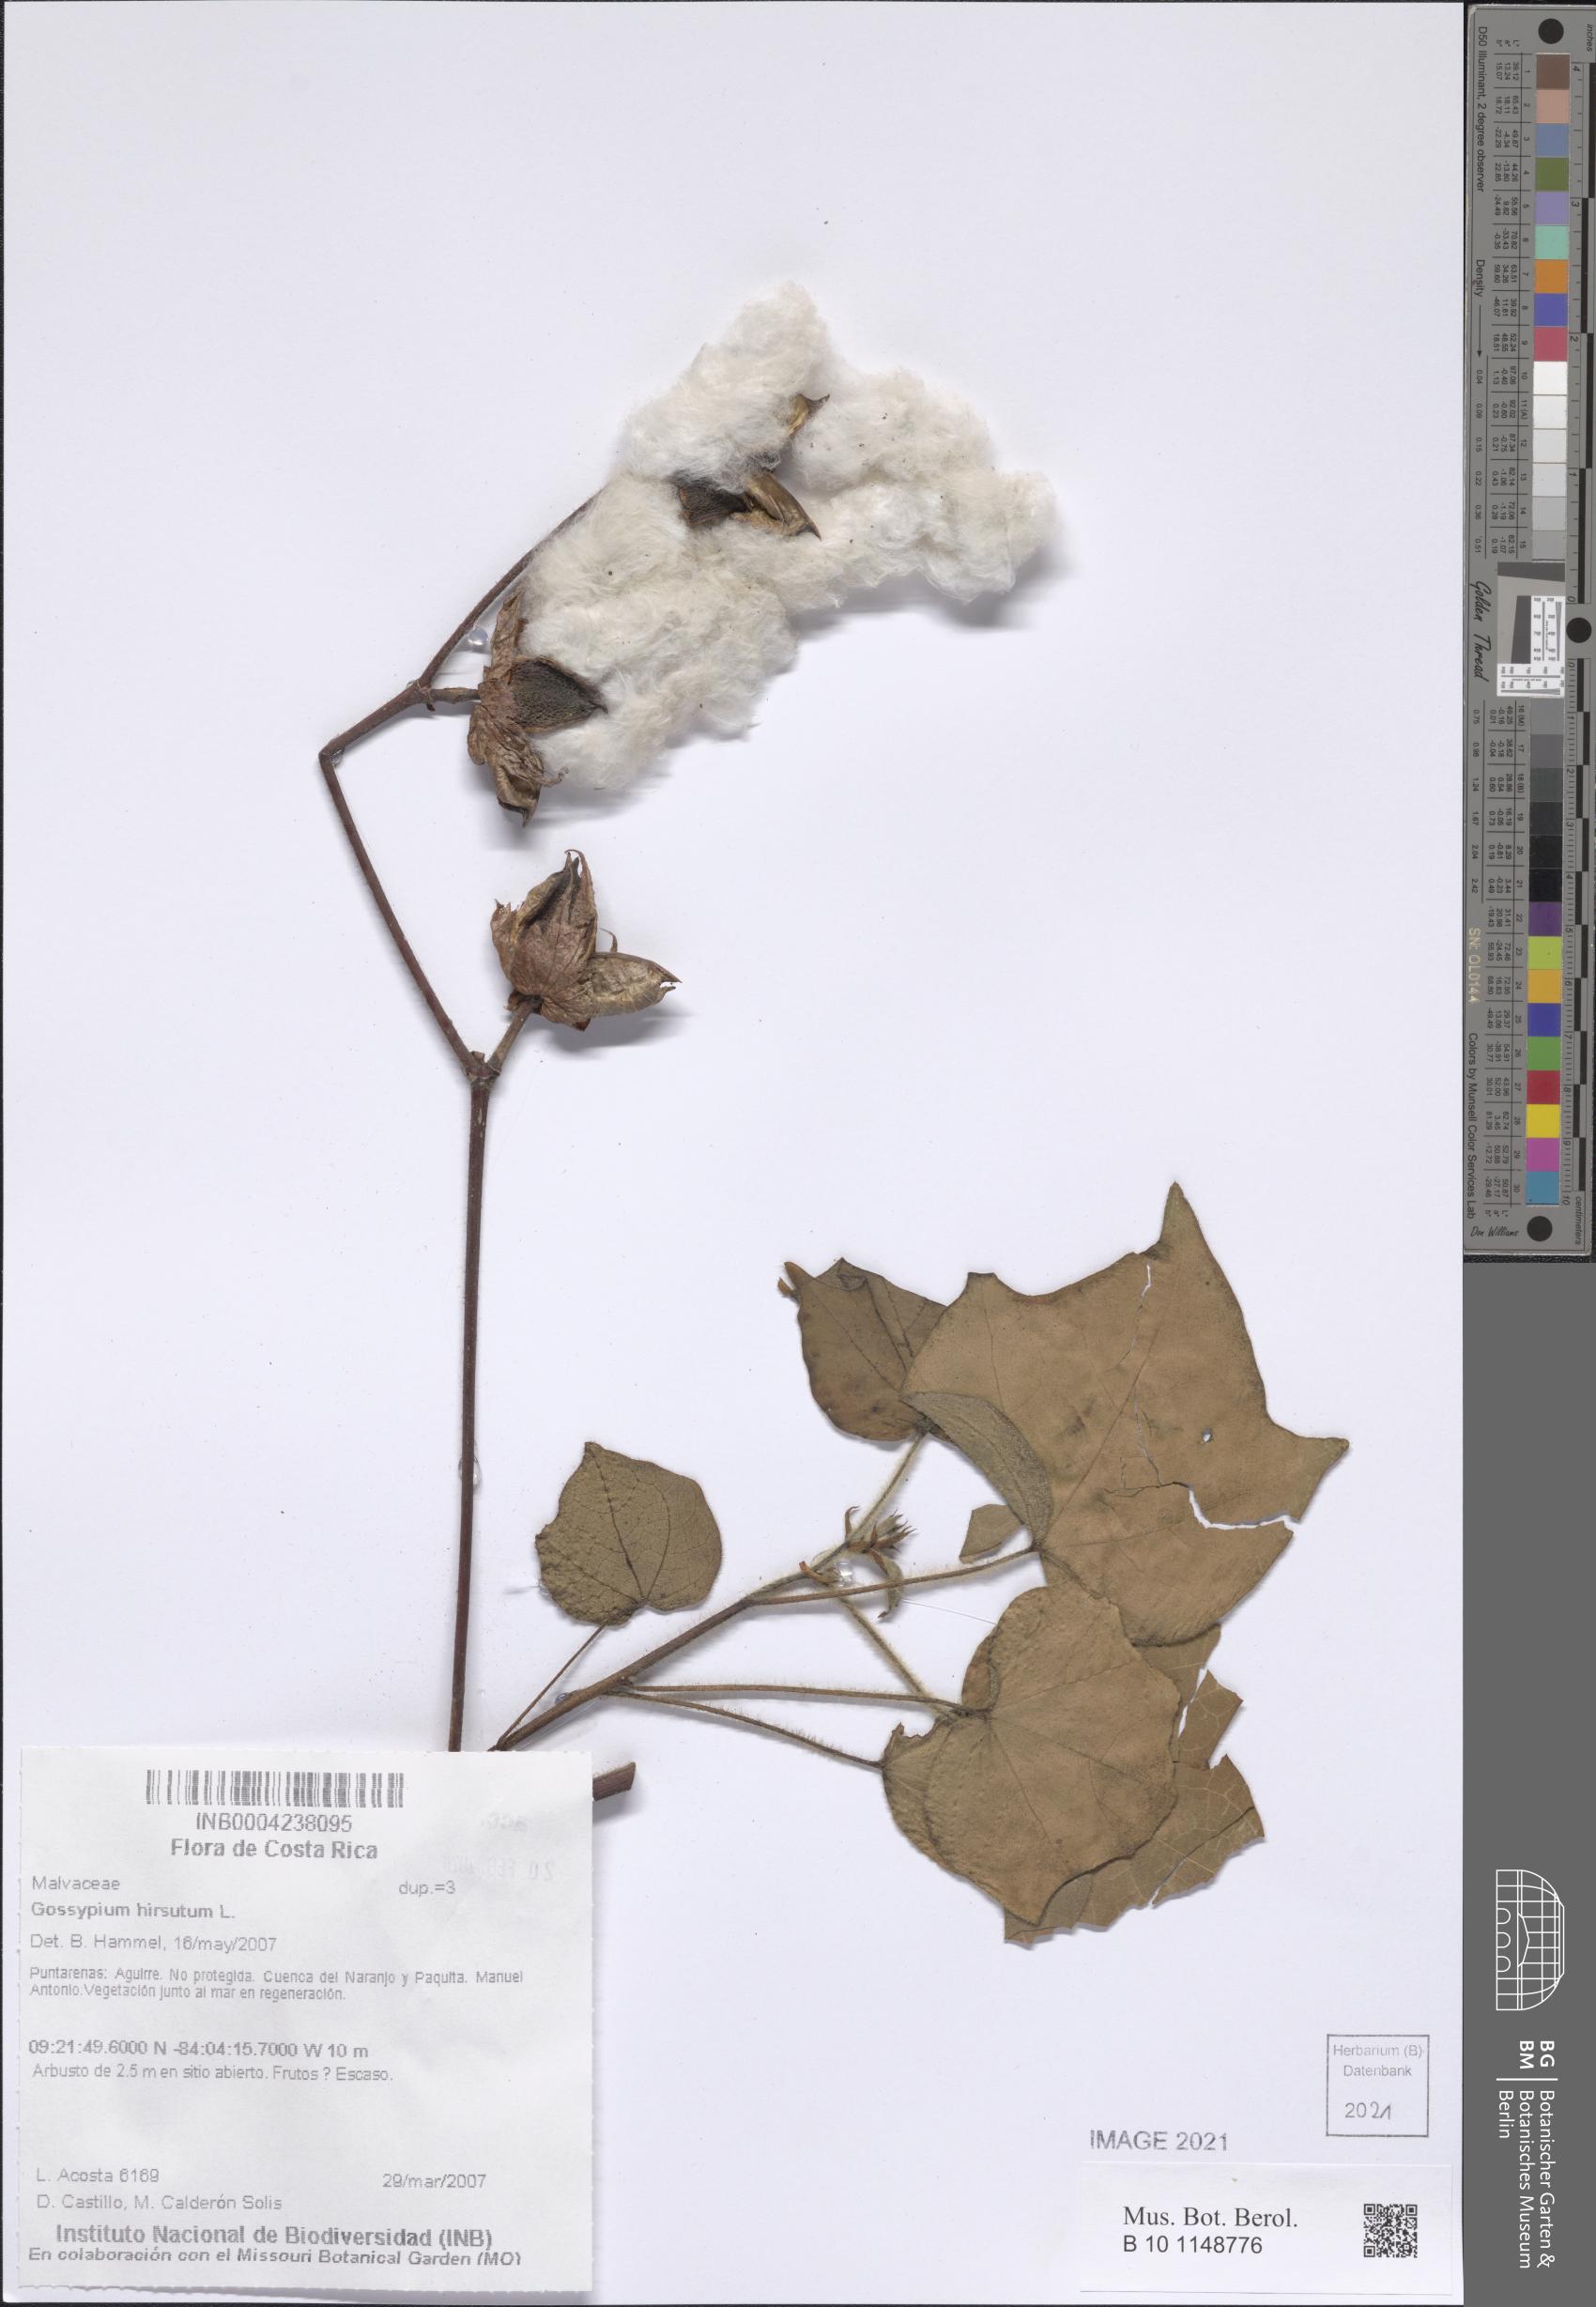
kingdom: Plantae
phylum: Tracheophyta
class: Magnoliopsida
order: Malvales
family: Malvaceae
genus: Gossypium
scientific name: Gossypium hirsutum
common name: Cotton
